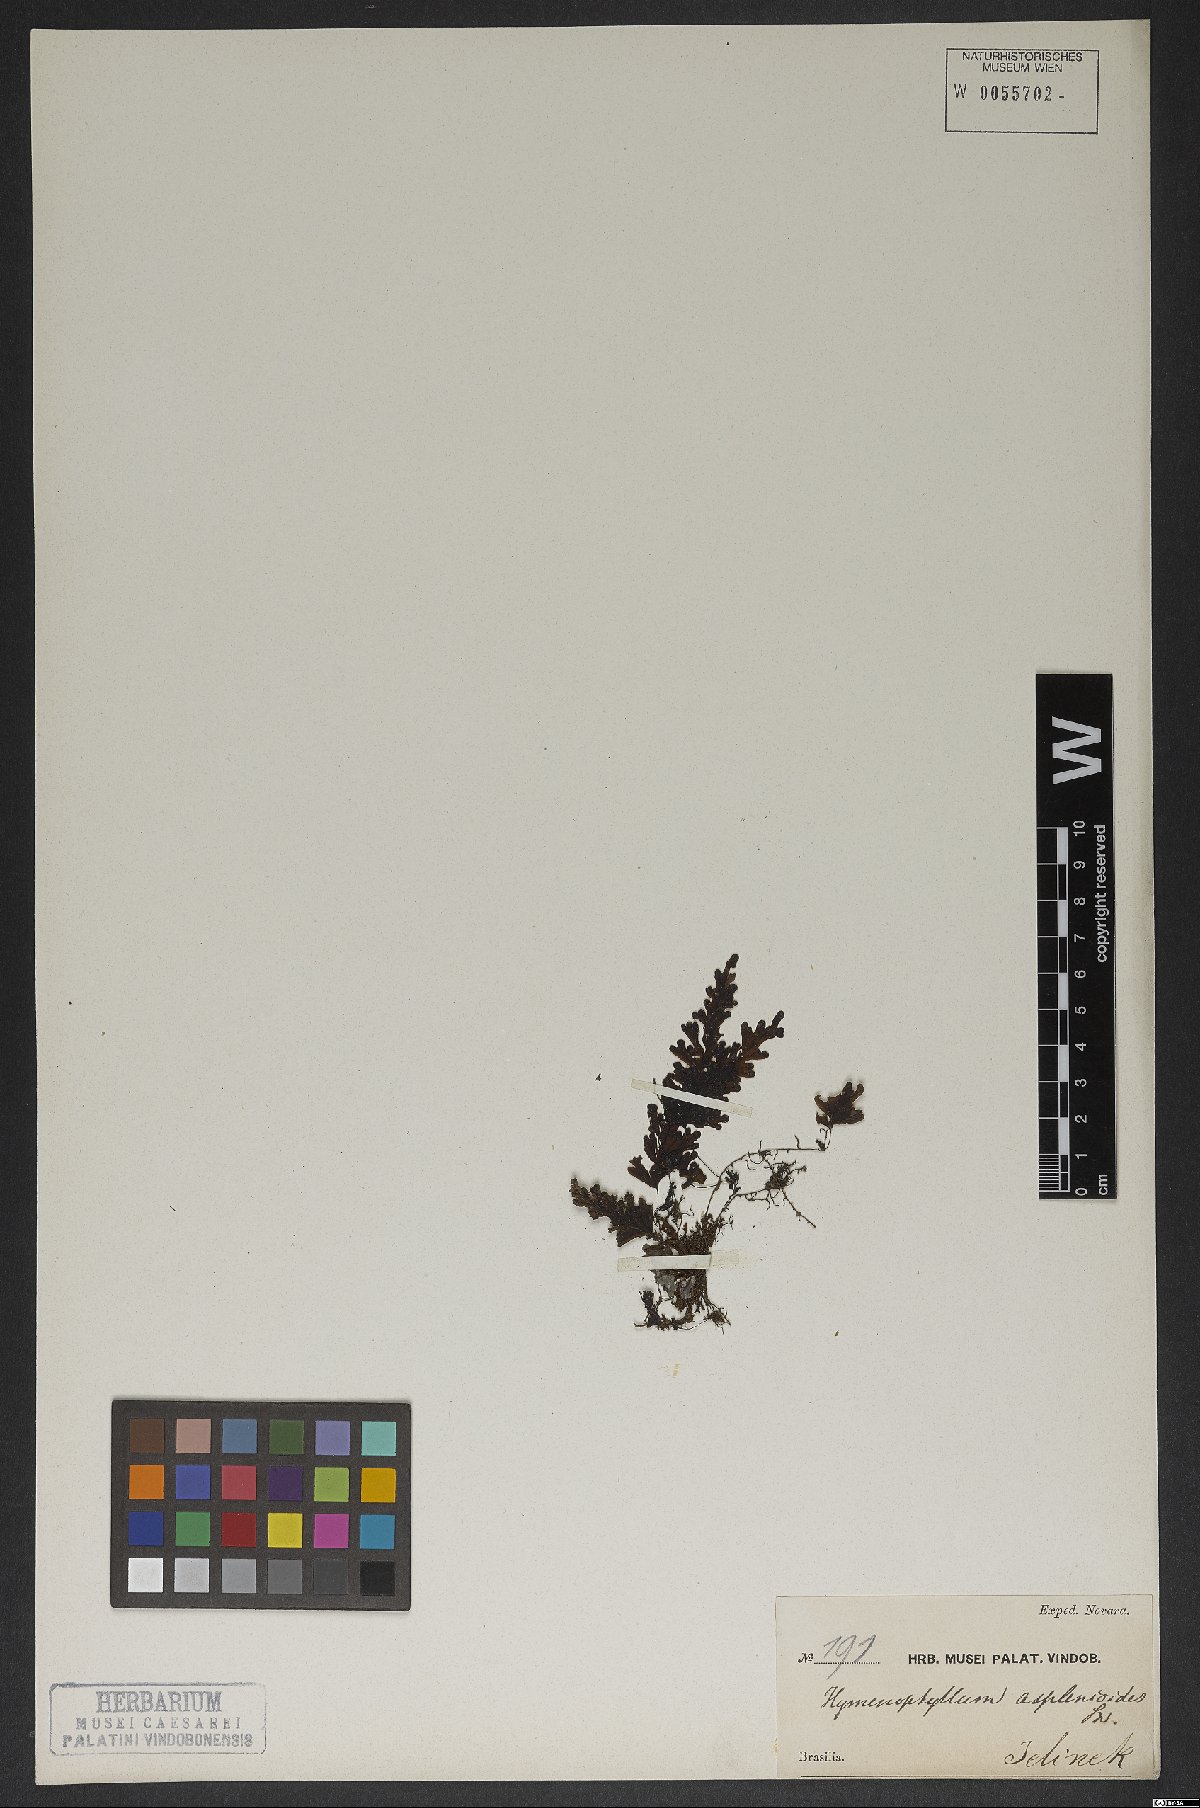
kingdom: Plantae
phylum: Tracheophyta
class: Polypodiopsida
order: Hymenophyllales
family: Hymenophyllaceae
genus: Hymenophyllum
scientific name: Hymenophyllum asplenioides
